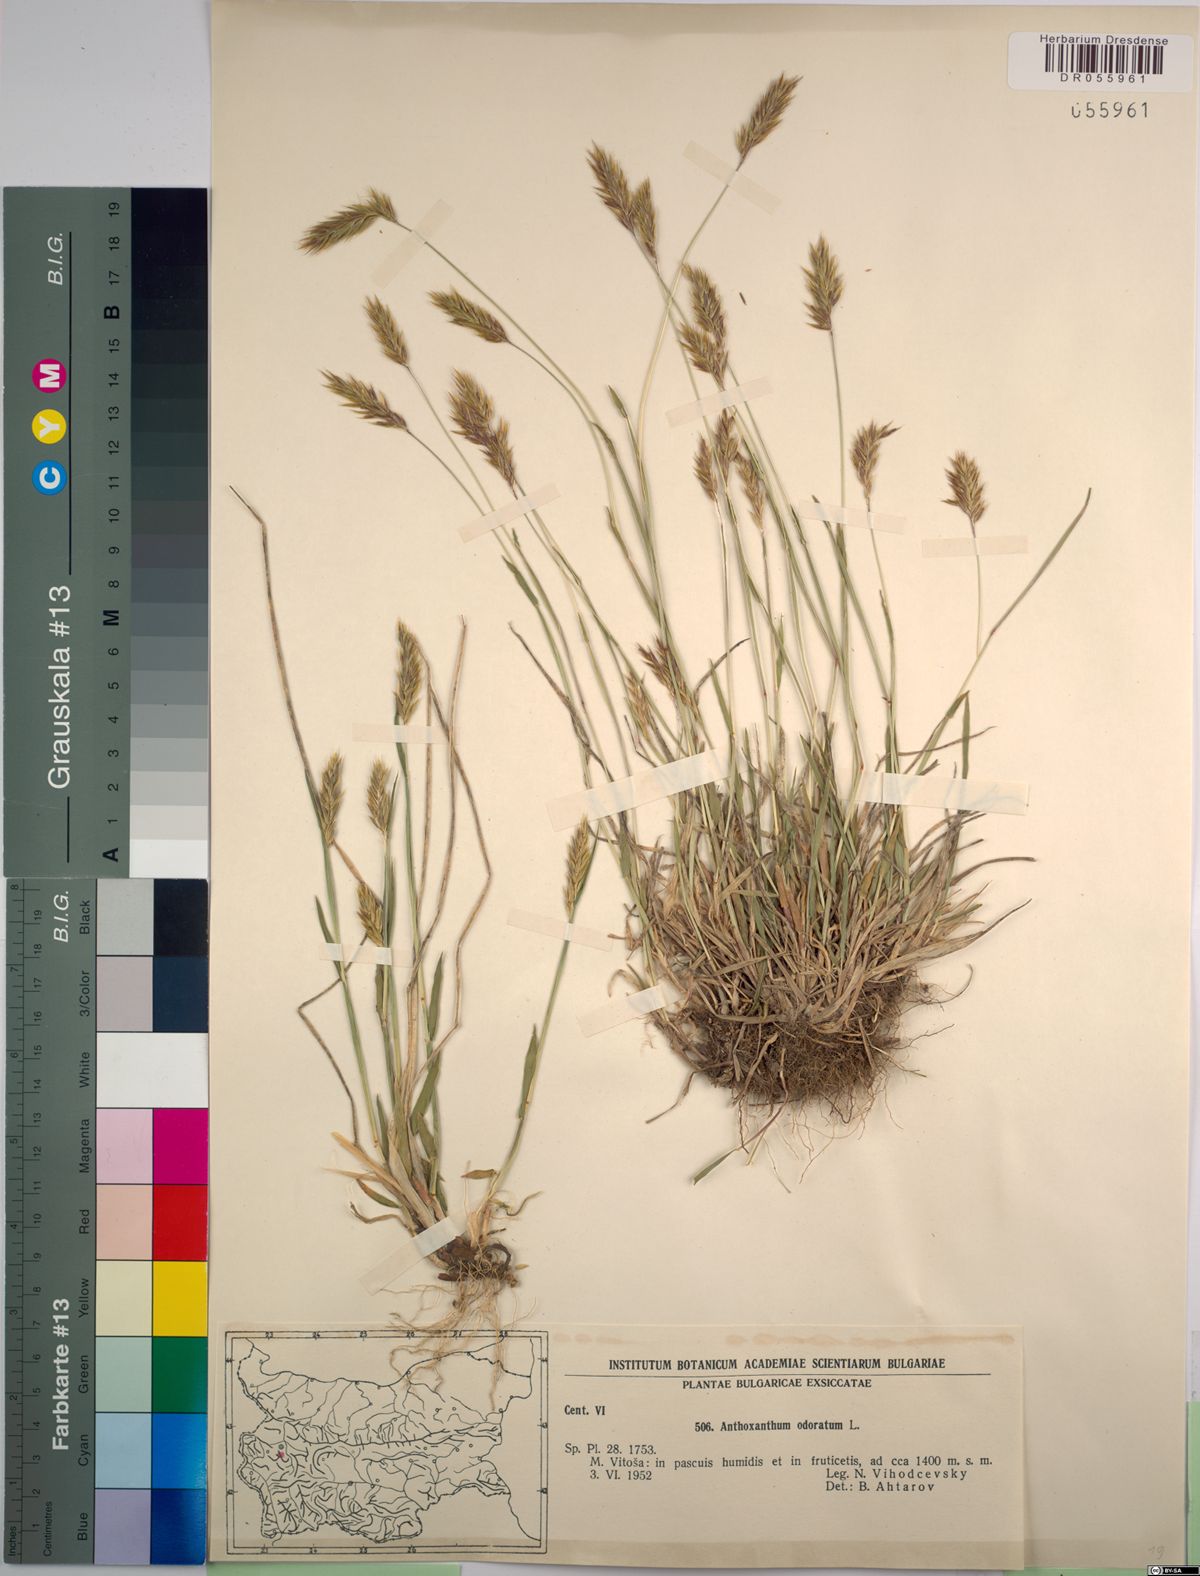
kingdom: Plantae
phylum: Tracheophyta
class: Liliopsida
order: Poales
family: Poaceae
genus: Anthoxanthum
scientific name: Anthoxanthum odoratum
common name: Sweet vernalgrass
